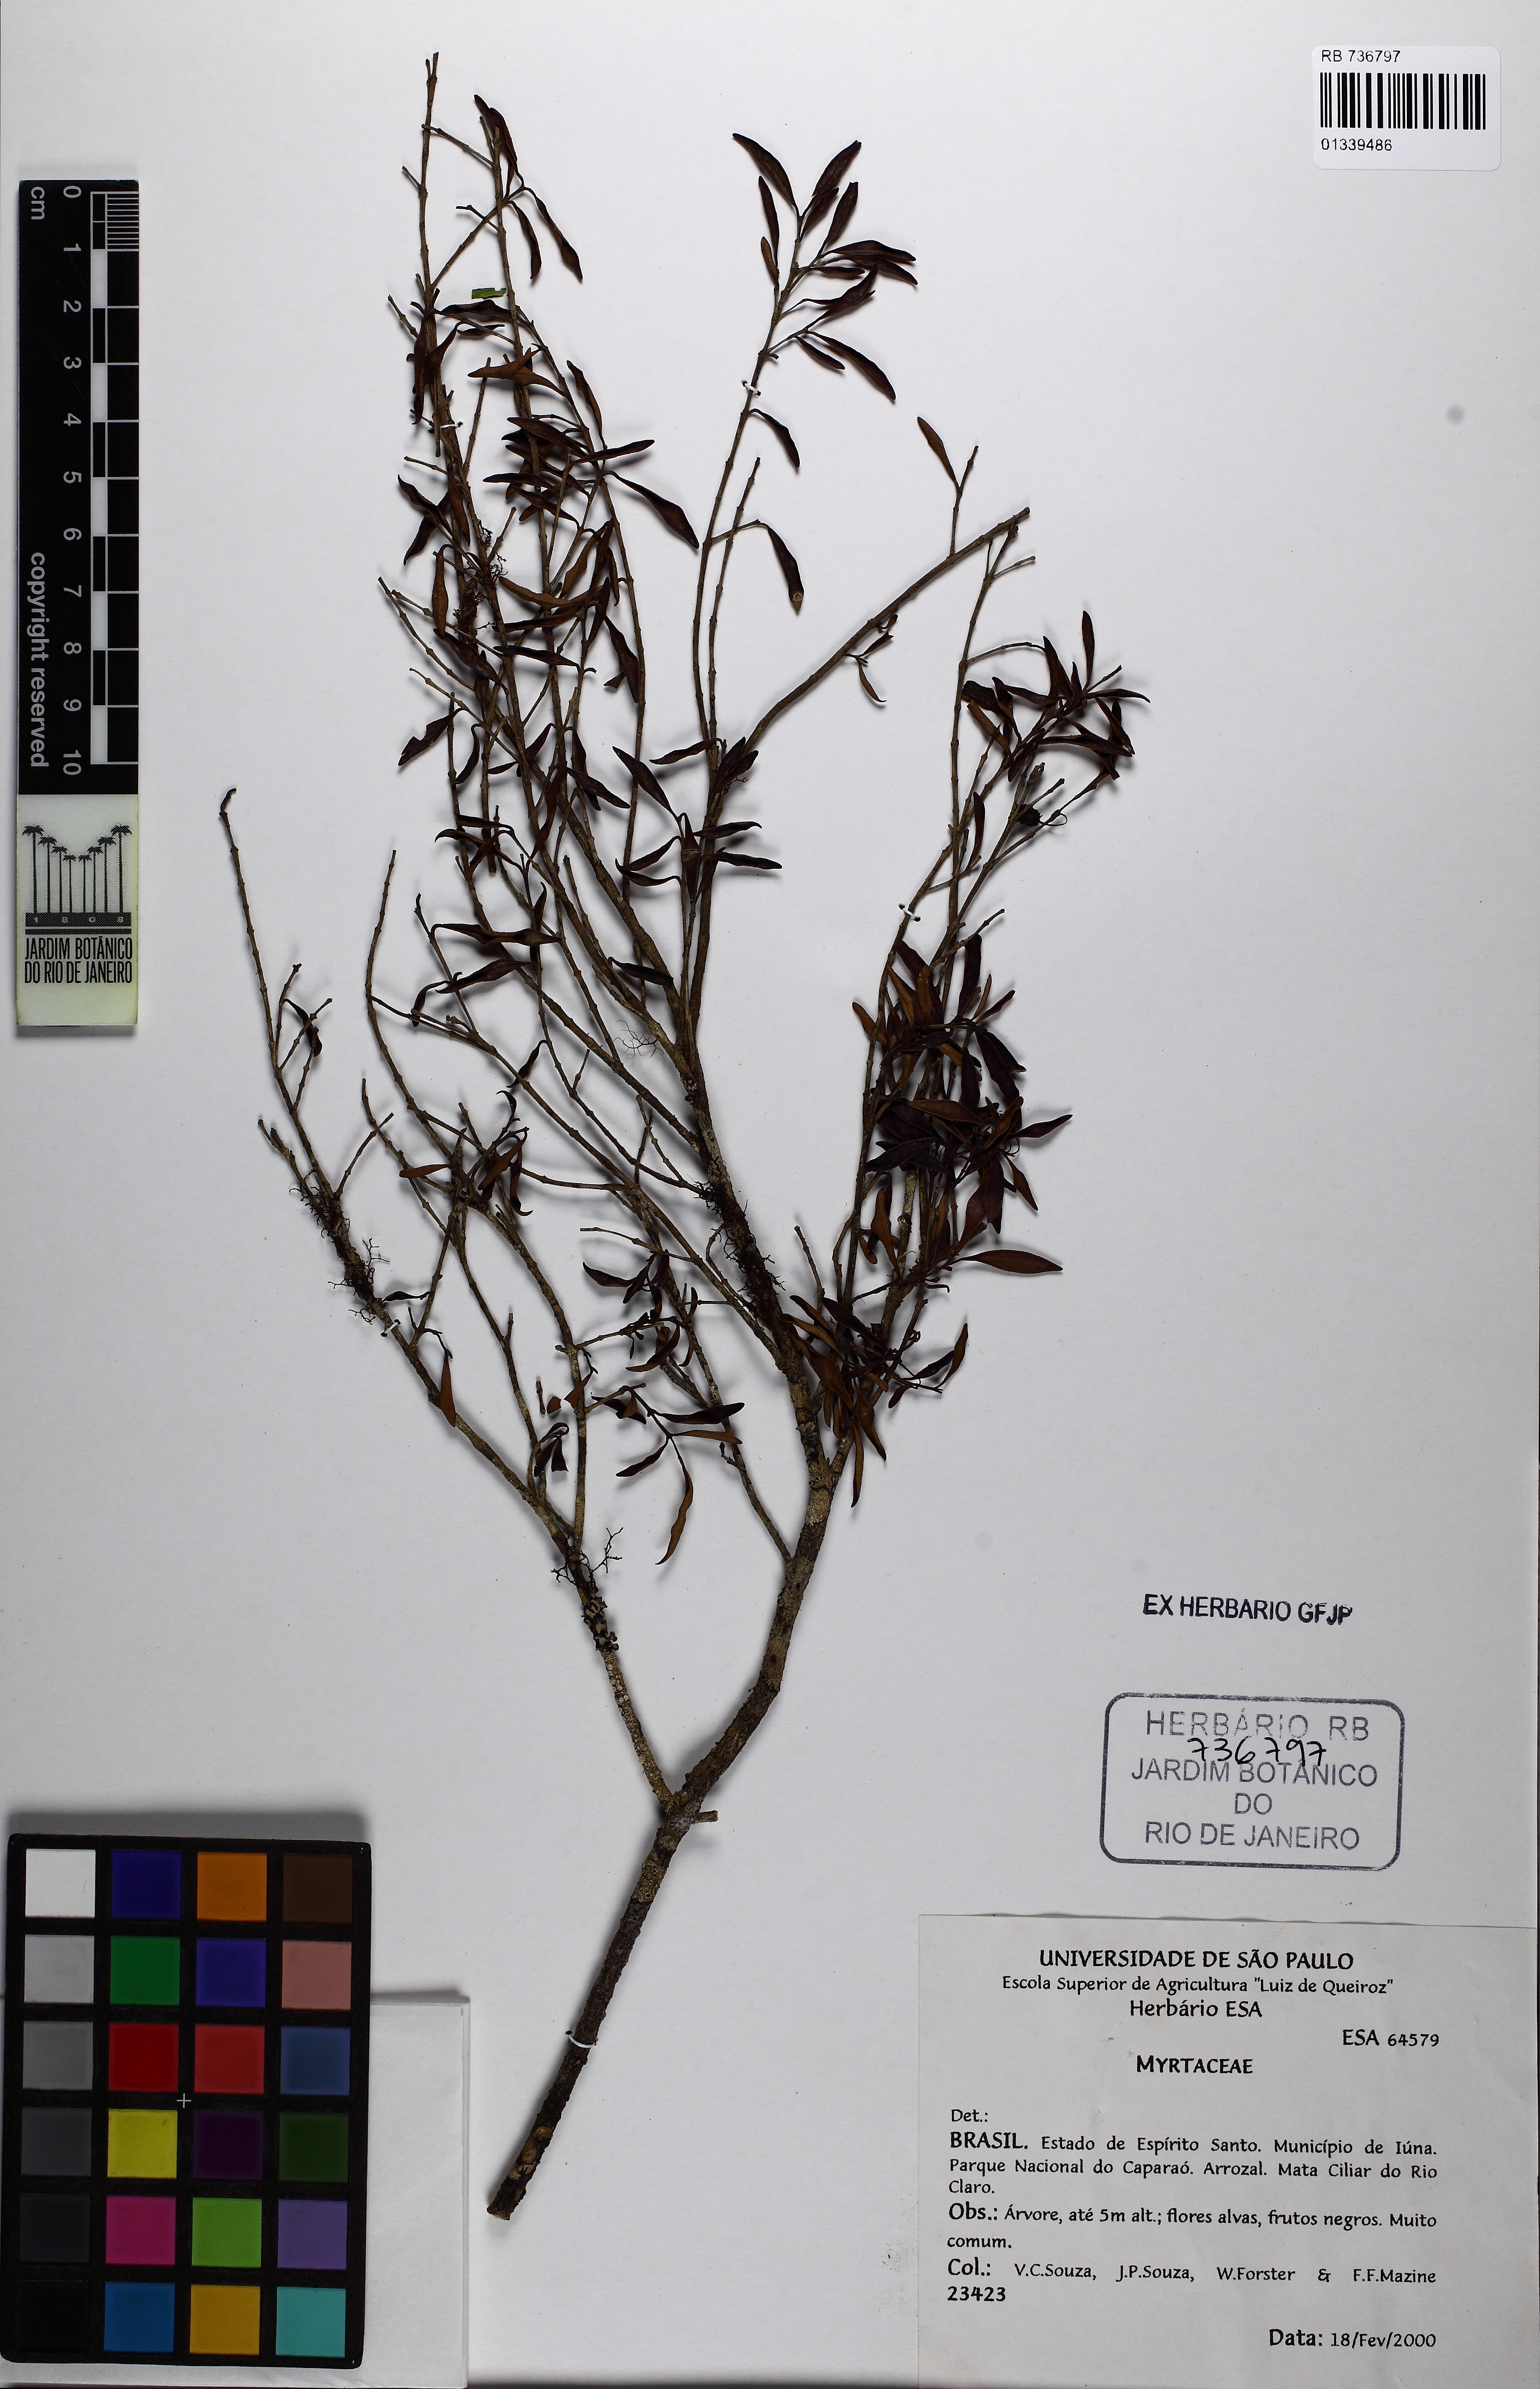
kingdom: Plantae
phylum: Tracheophyta
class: Magnoliopsida
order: Myrtales
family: Myrtaceae
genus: Myrceugenia
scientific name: Myrceugenia ovata
